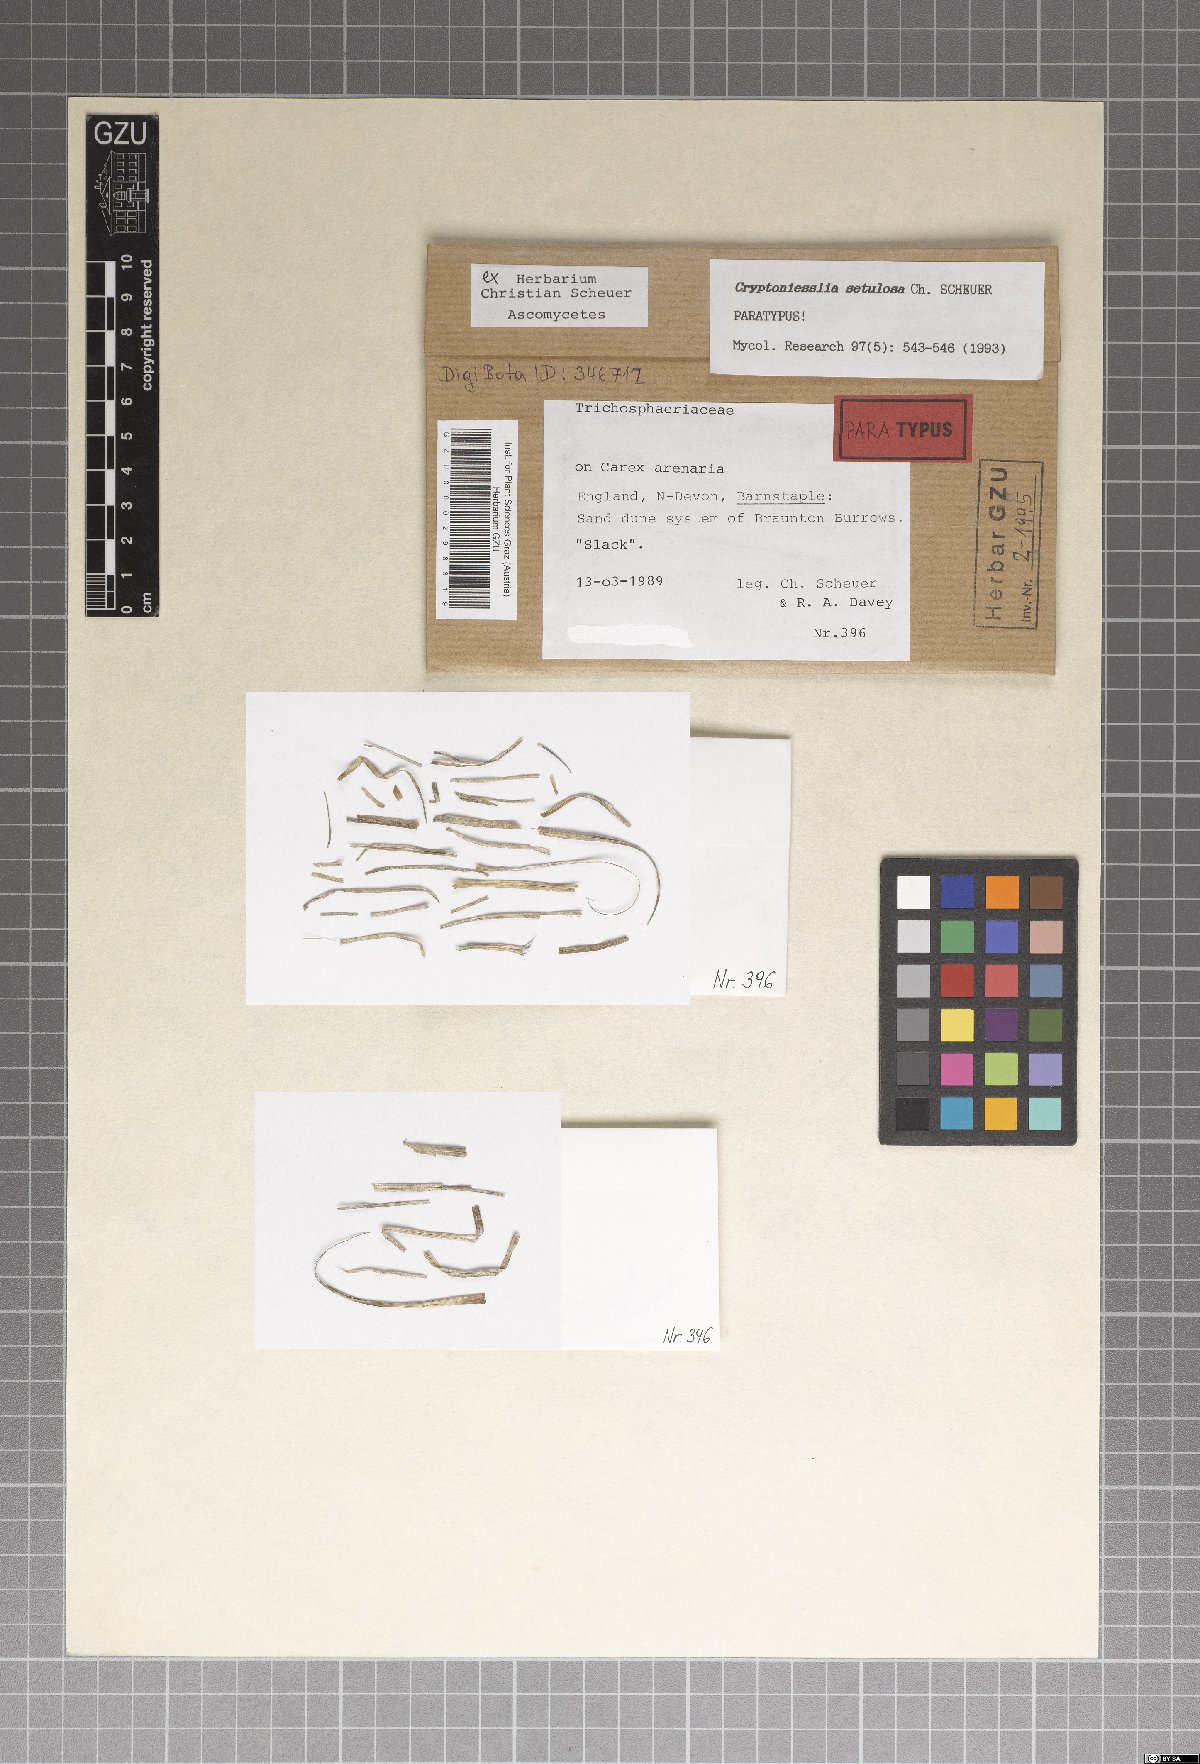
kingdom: Fungi
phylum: Ascomycota
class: Sordariomycetes
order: Hypocreales
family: Niessliaceae
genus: Cryptoniesslia
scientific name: Cryptoniesslia setulosa
